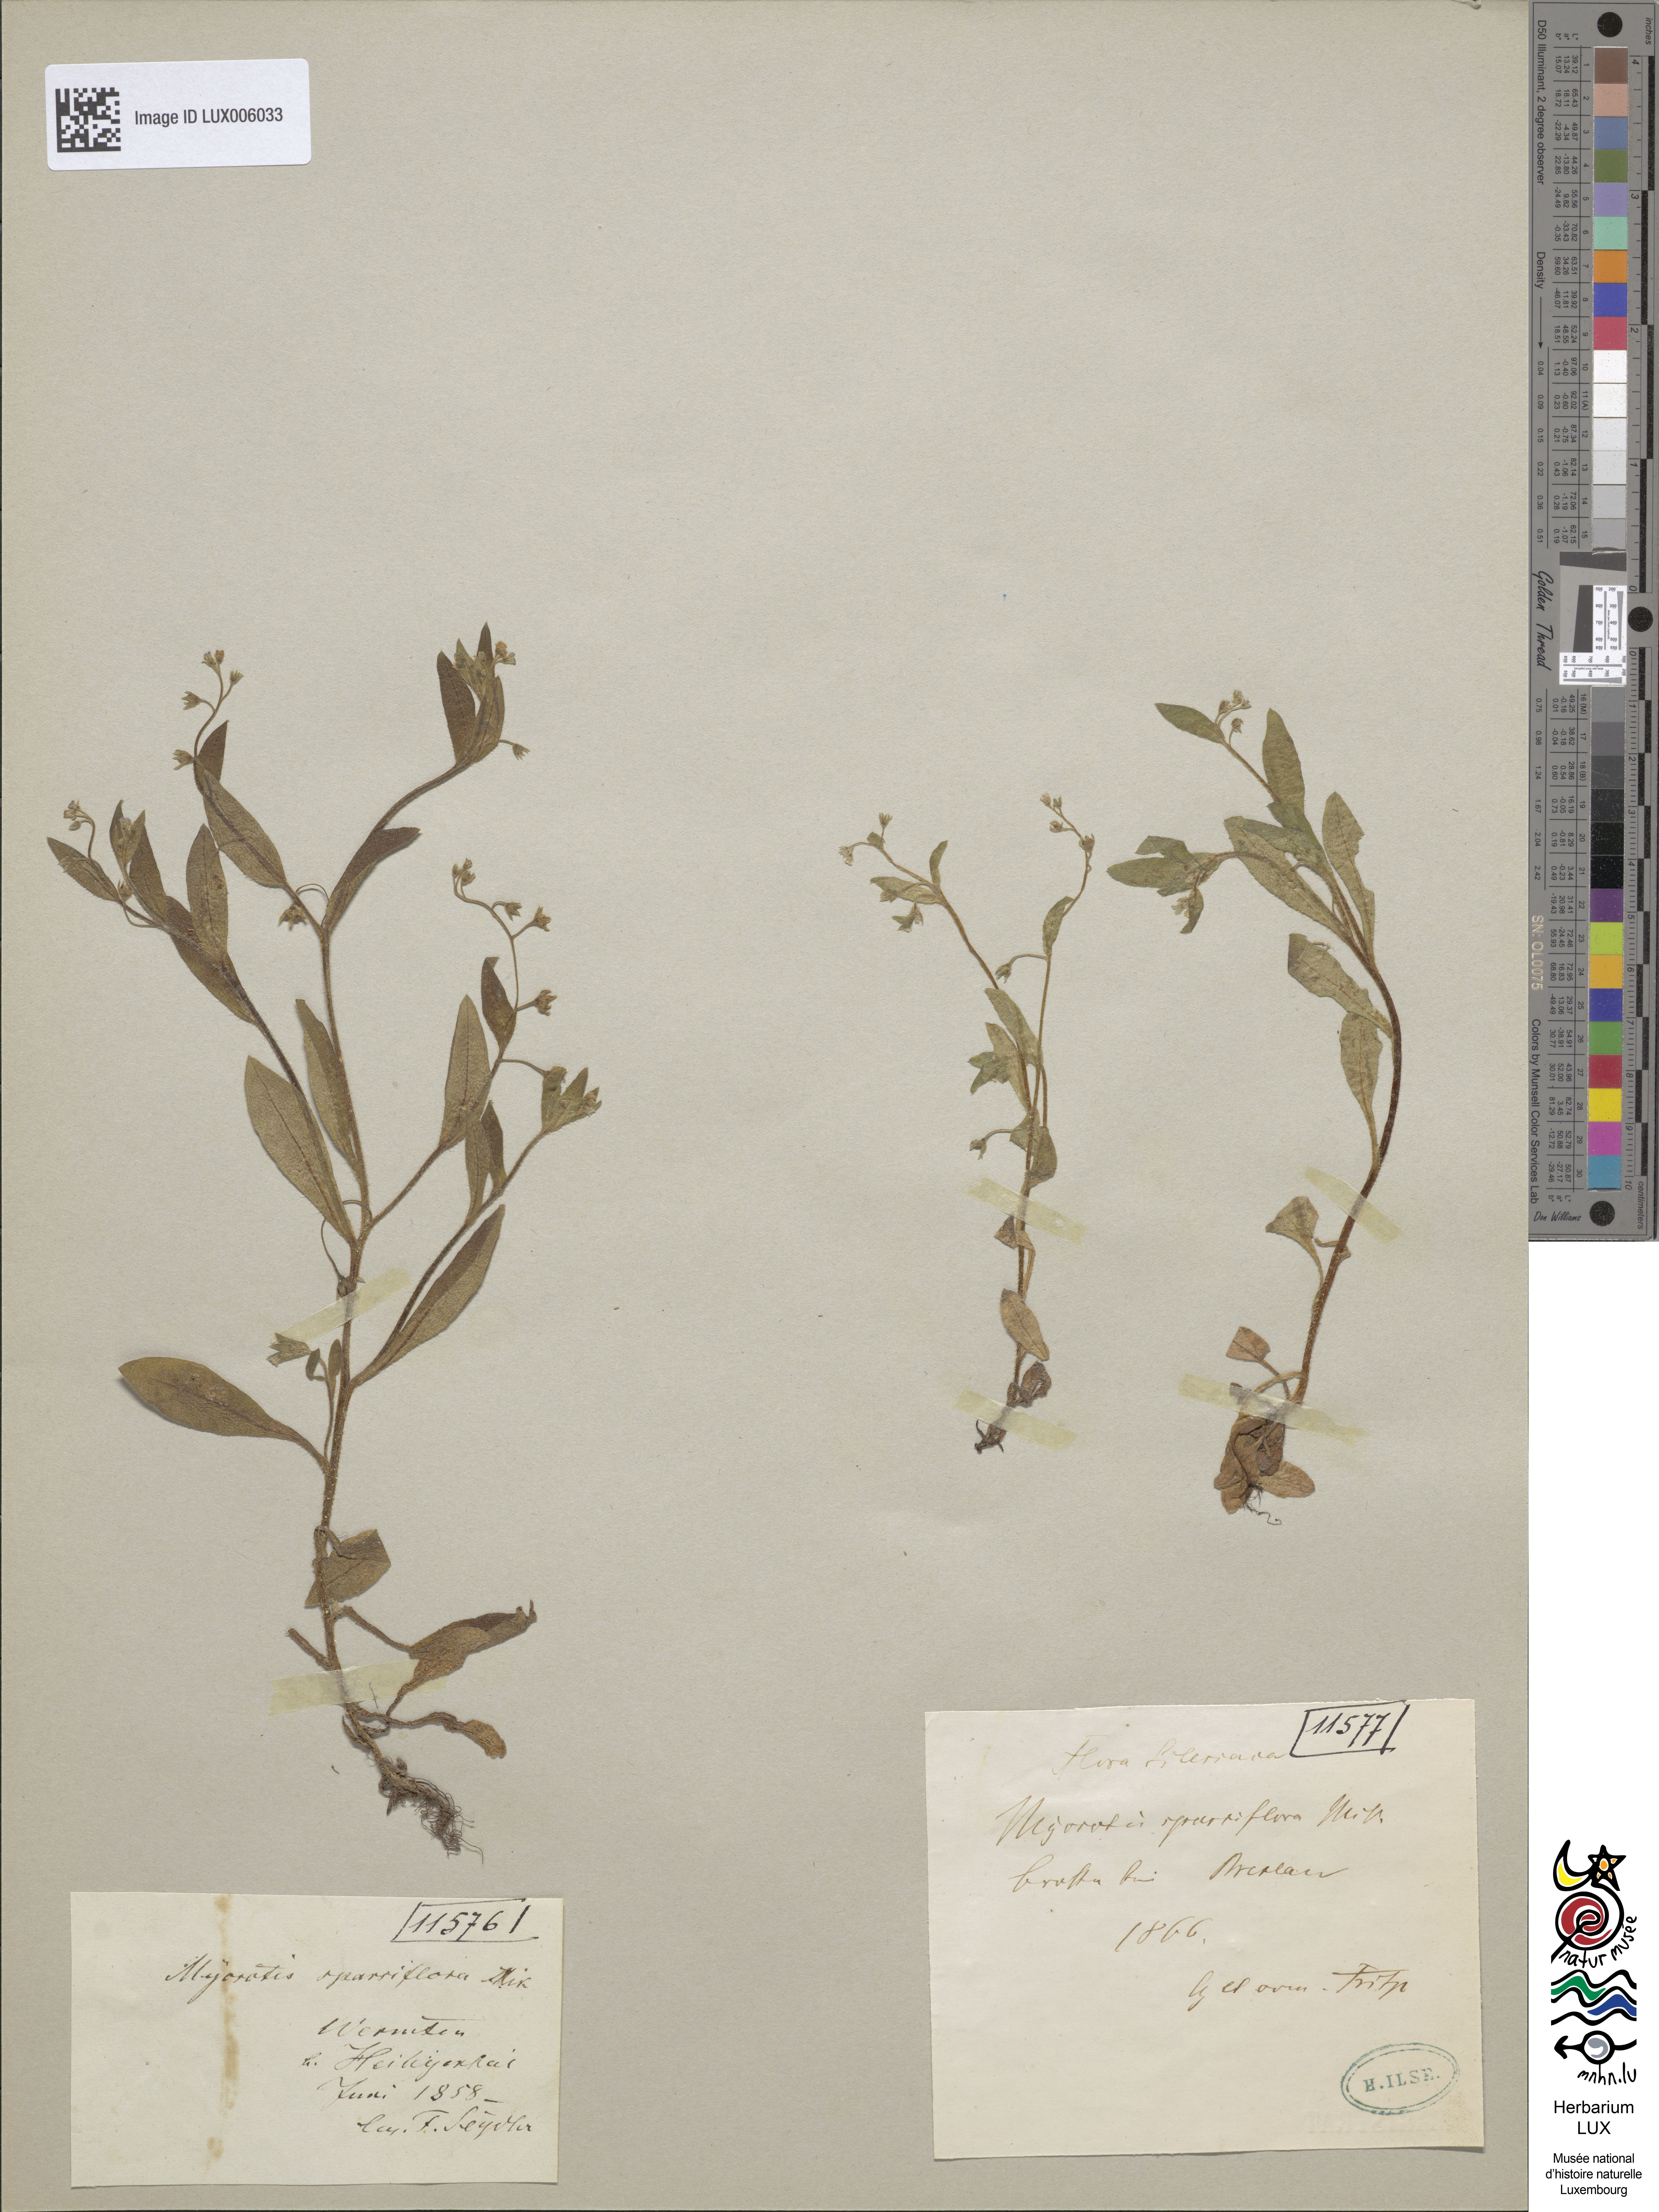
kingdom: Plantae
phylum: Tracheophyta
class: Magnoliopsida
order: Boraginales
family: Boraginaceae
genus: Myosotis
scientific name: Myosotis sparsiflora
